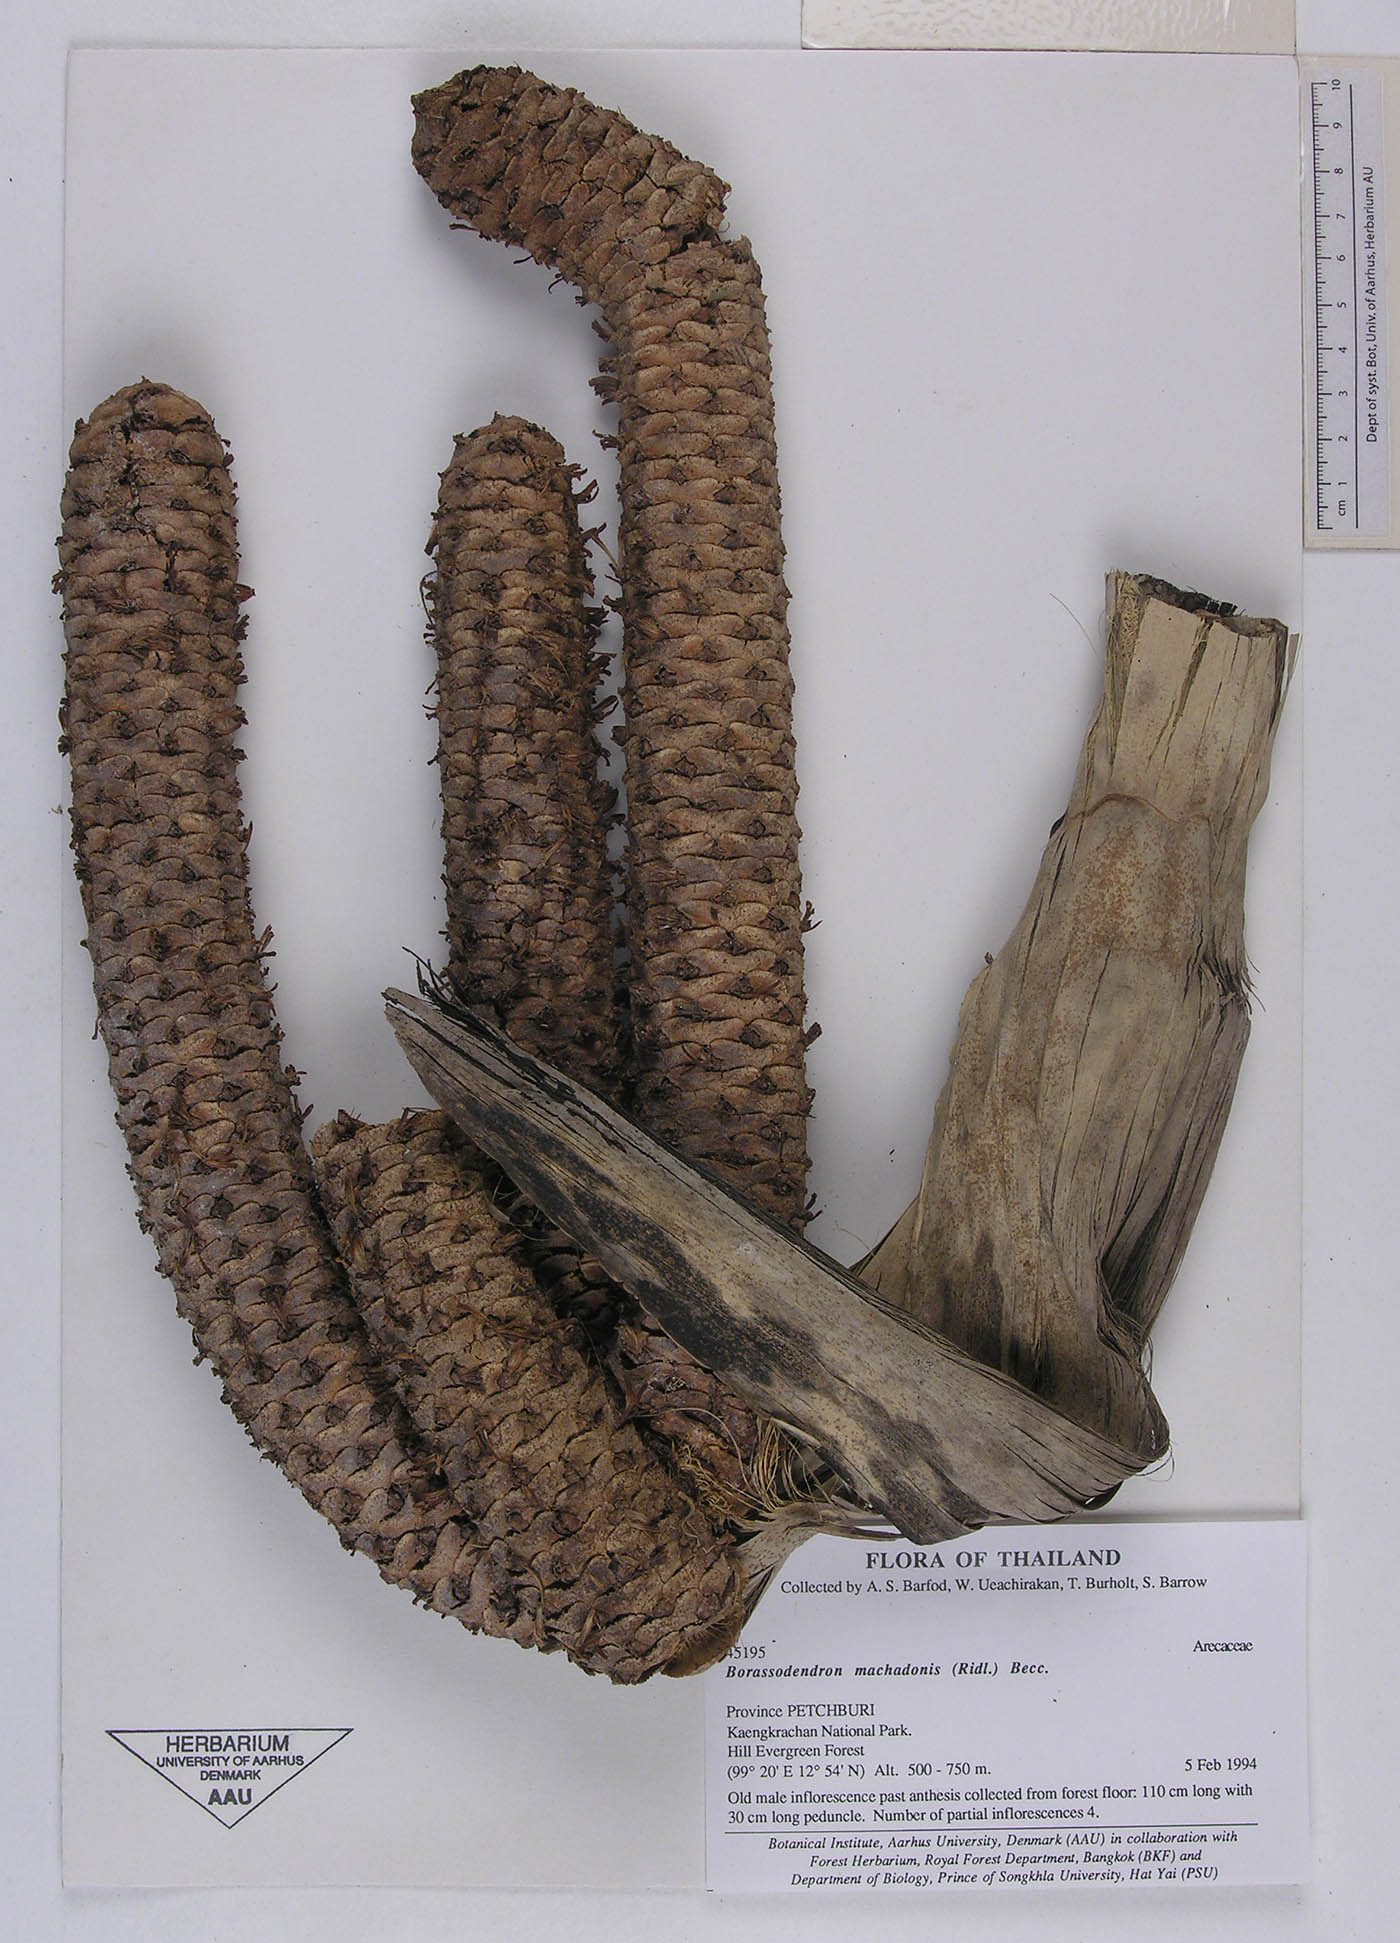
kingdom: Plantae
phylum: Tracheophyta
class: Liliopsida
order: Arecales
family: Arecaceae
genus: Borassodendron
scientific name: Borassodendron machadonis
